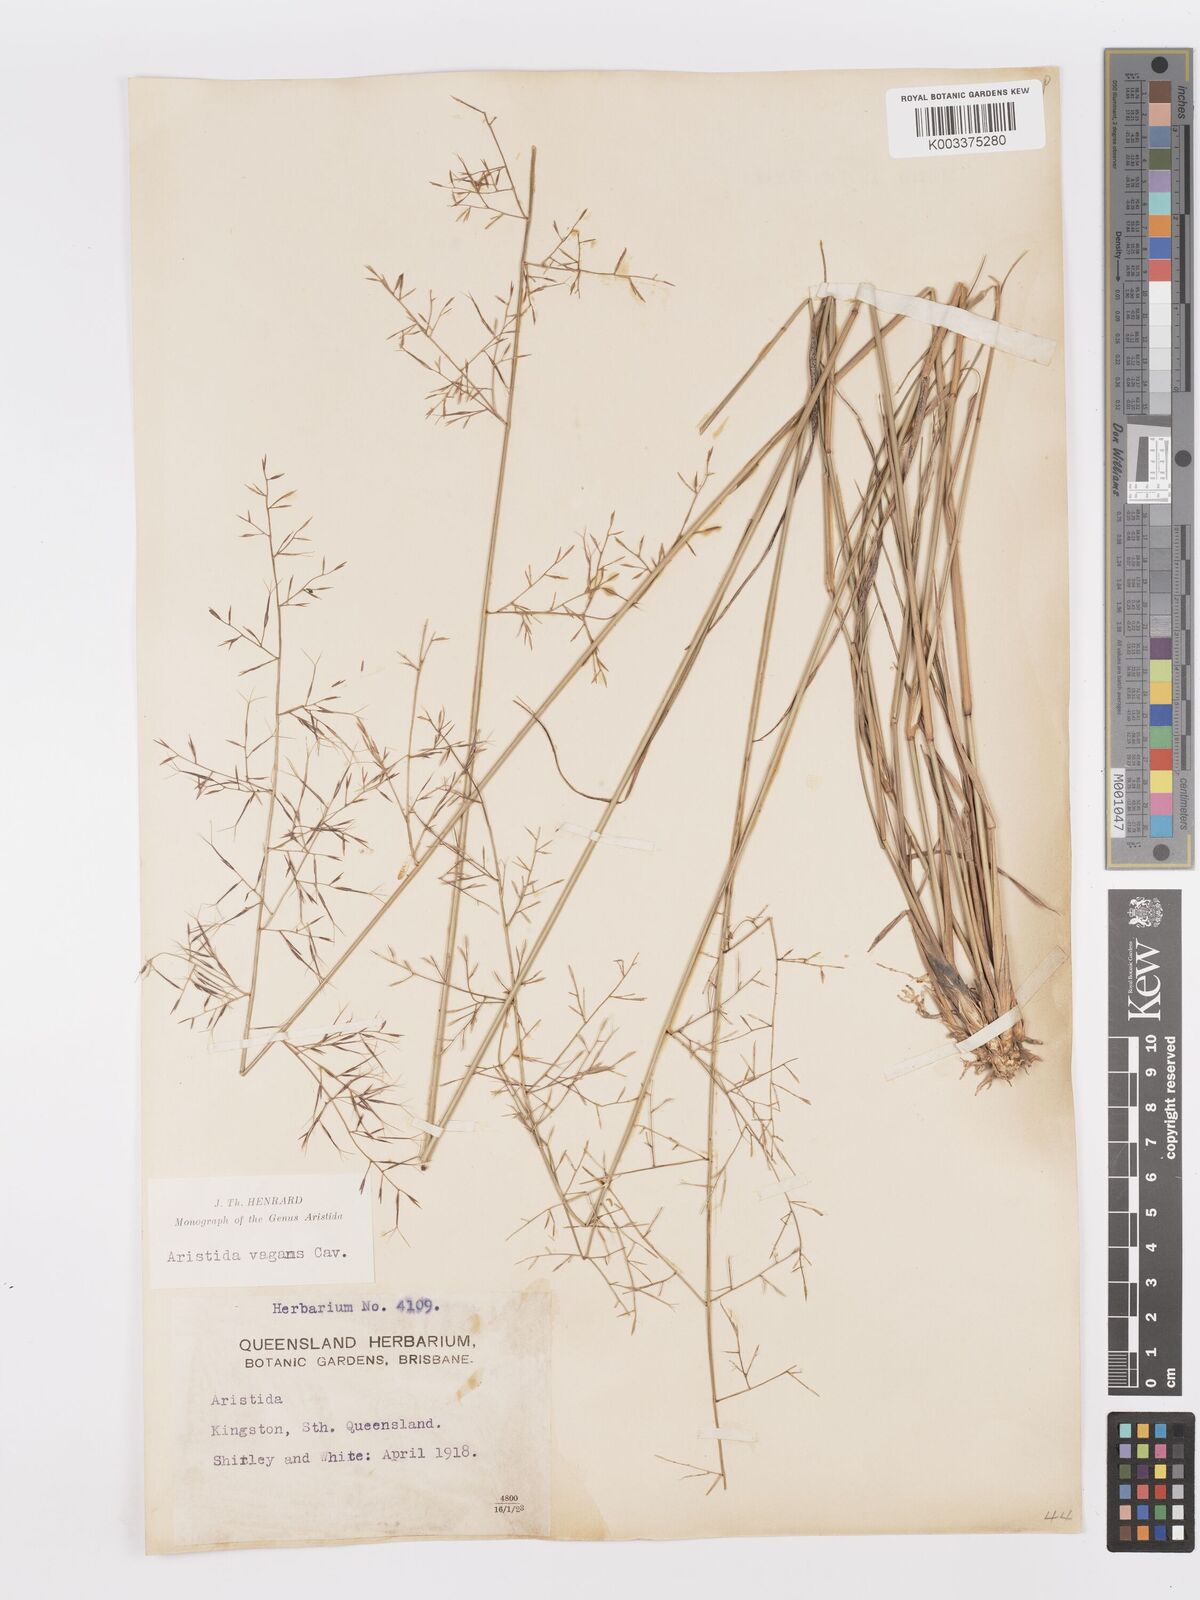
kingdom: Plantae
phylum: Tracheophyta
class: Liliopsida
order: Poales
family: Poaceae
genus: Aristida
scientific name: Aristida vagans
